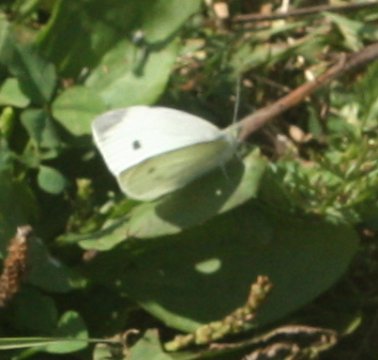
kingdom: Animalia
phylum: Arthropoda
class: Insecta
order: Lepidoptera
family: Pieridae
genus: Pieris
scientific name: Pieris rapae
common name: Cabbage White
